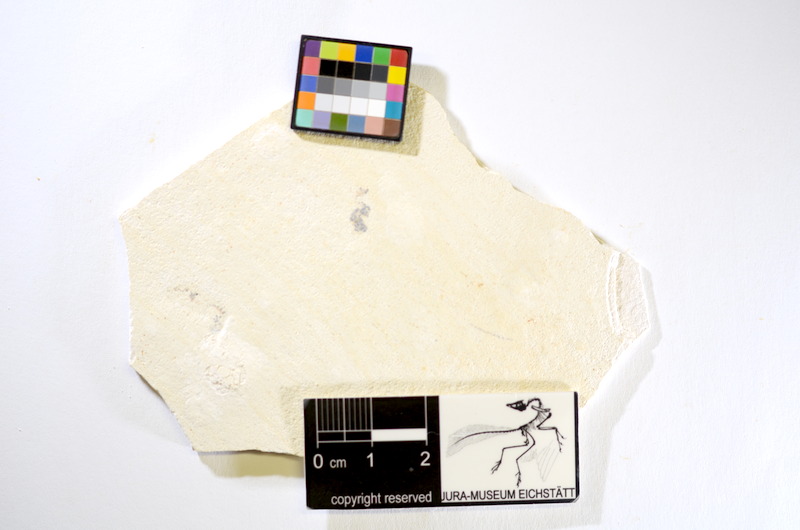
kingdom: Animalia
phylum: Chordata
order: Salmoniformes
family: Orthogonikleithridae
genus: Orthogonikleithrus
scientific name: Orthogonikleithrus hoelli
